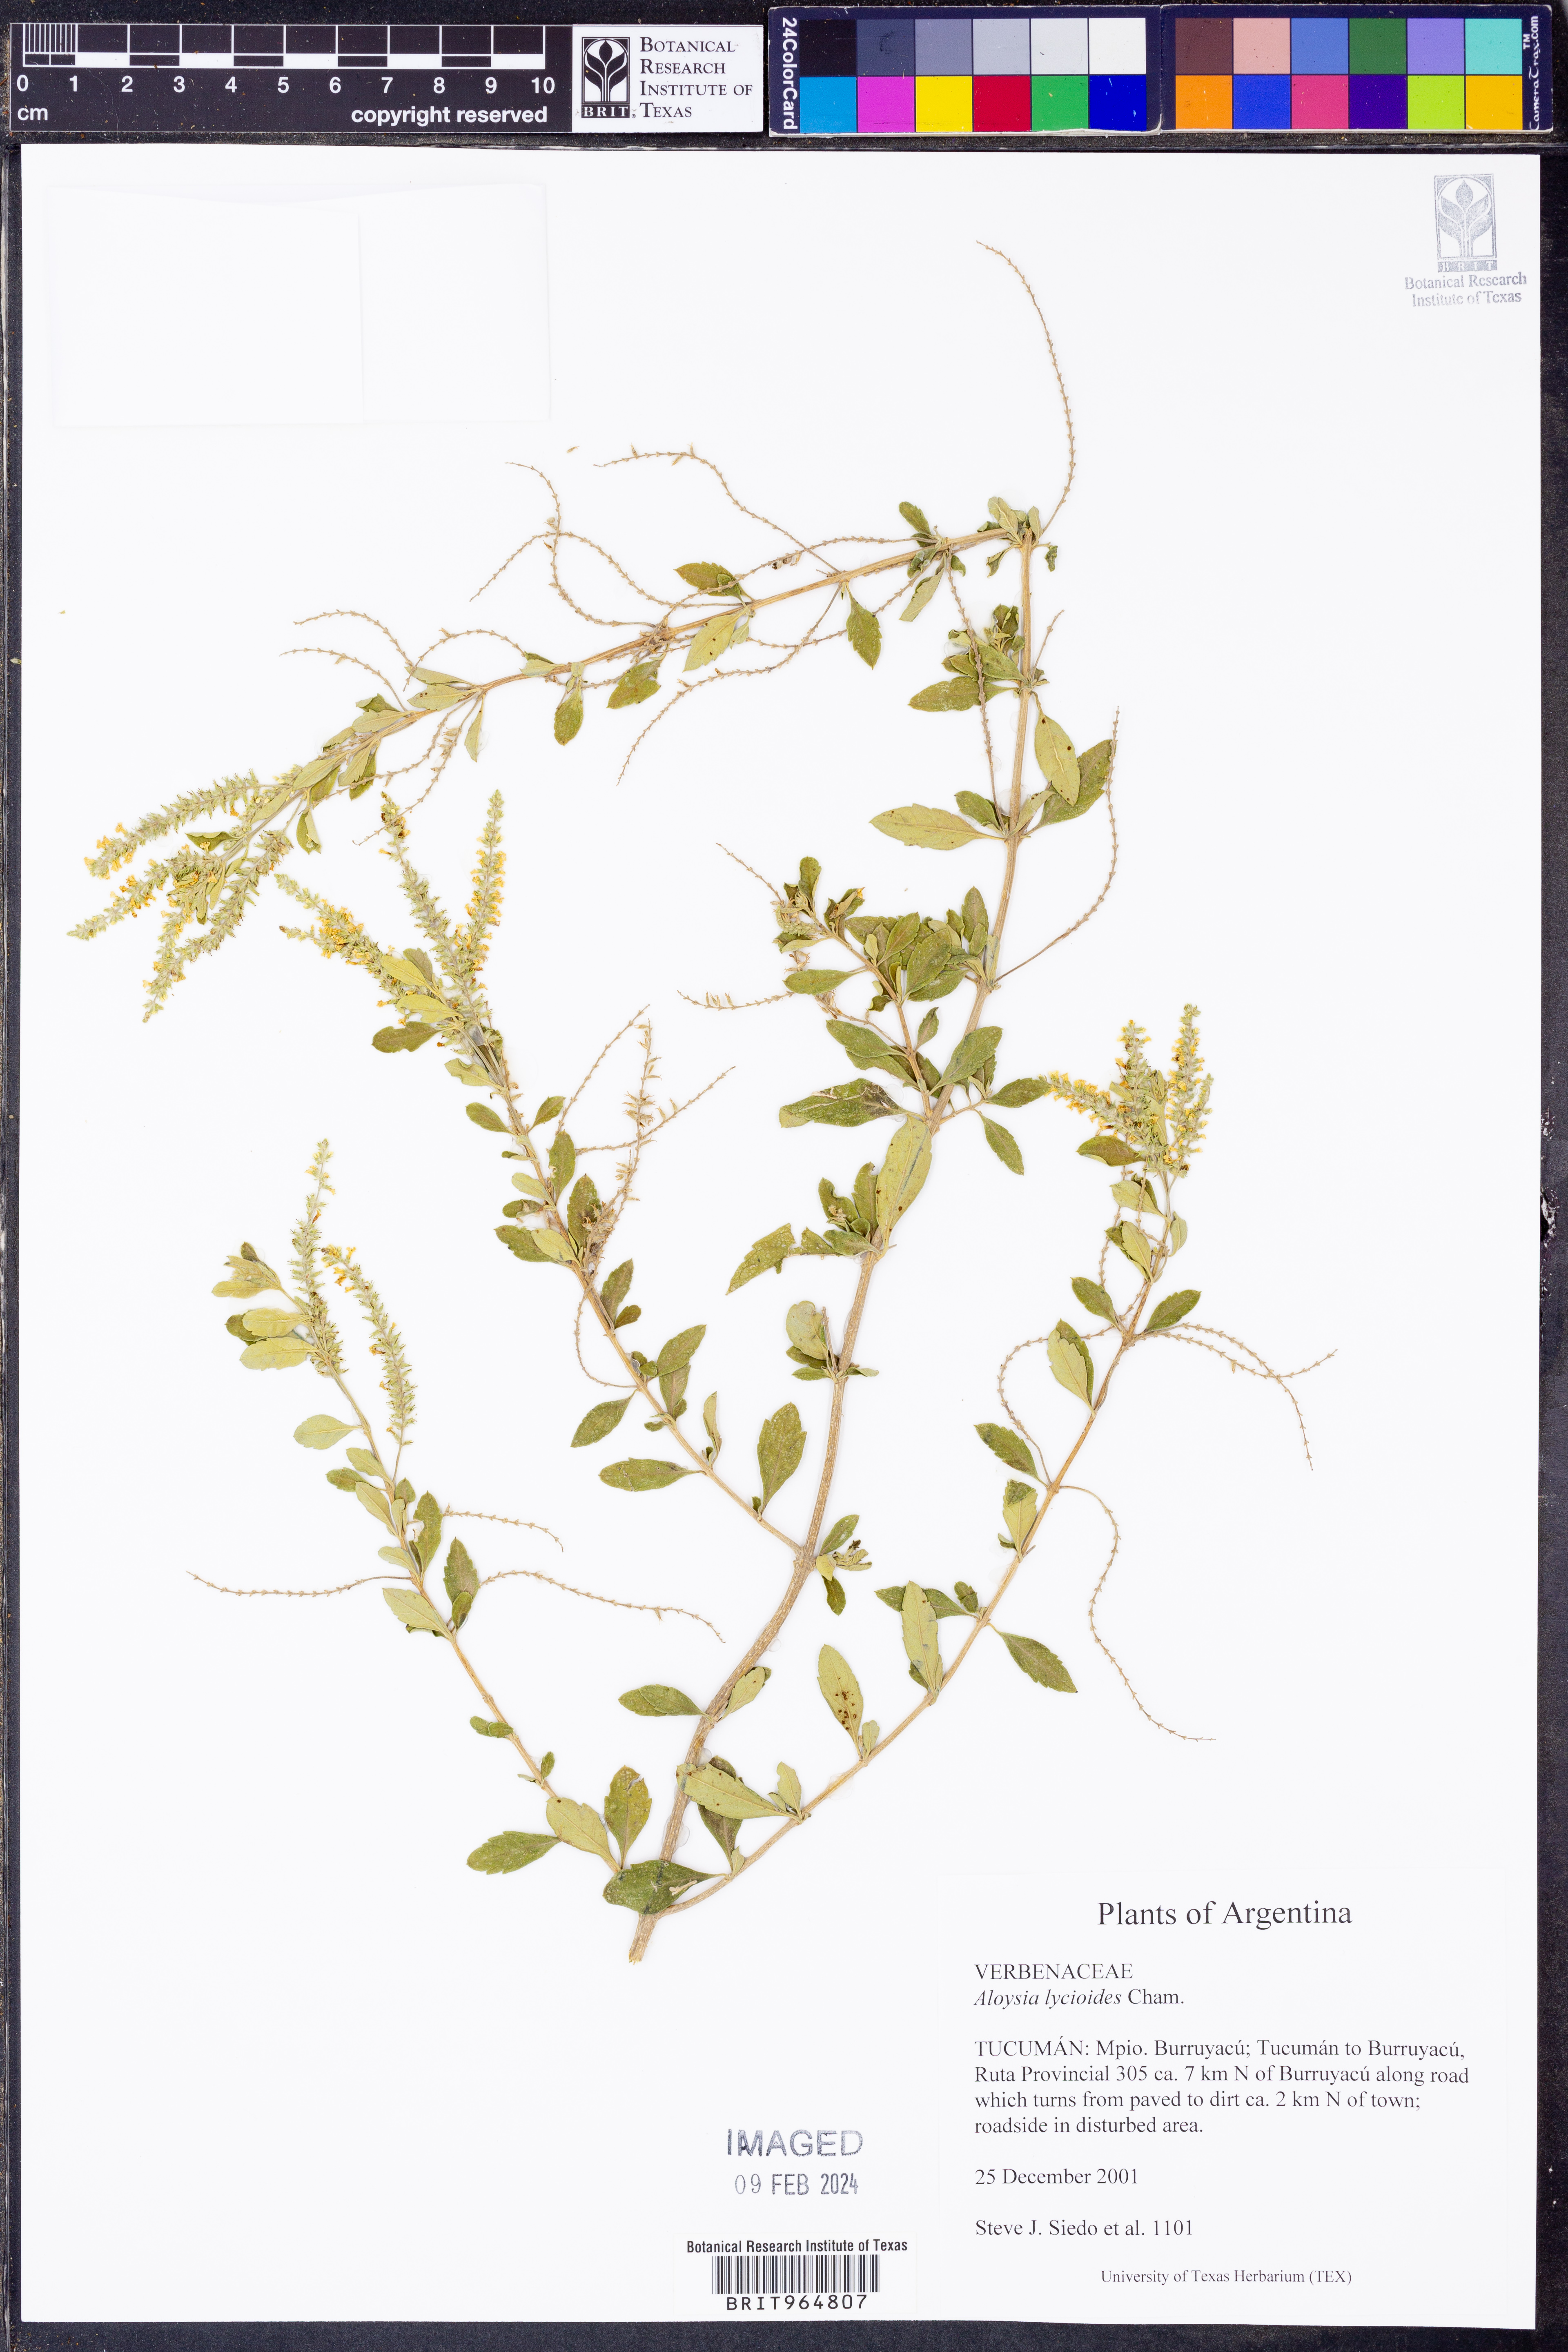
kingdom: Plantae
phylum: Tracheophyta
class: Magnoliopsida
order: Lamiales
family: Verbenaceae
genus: Aloysia
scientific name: Aloysia
